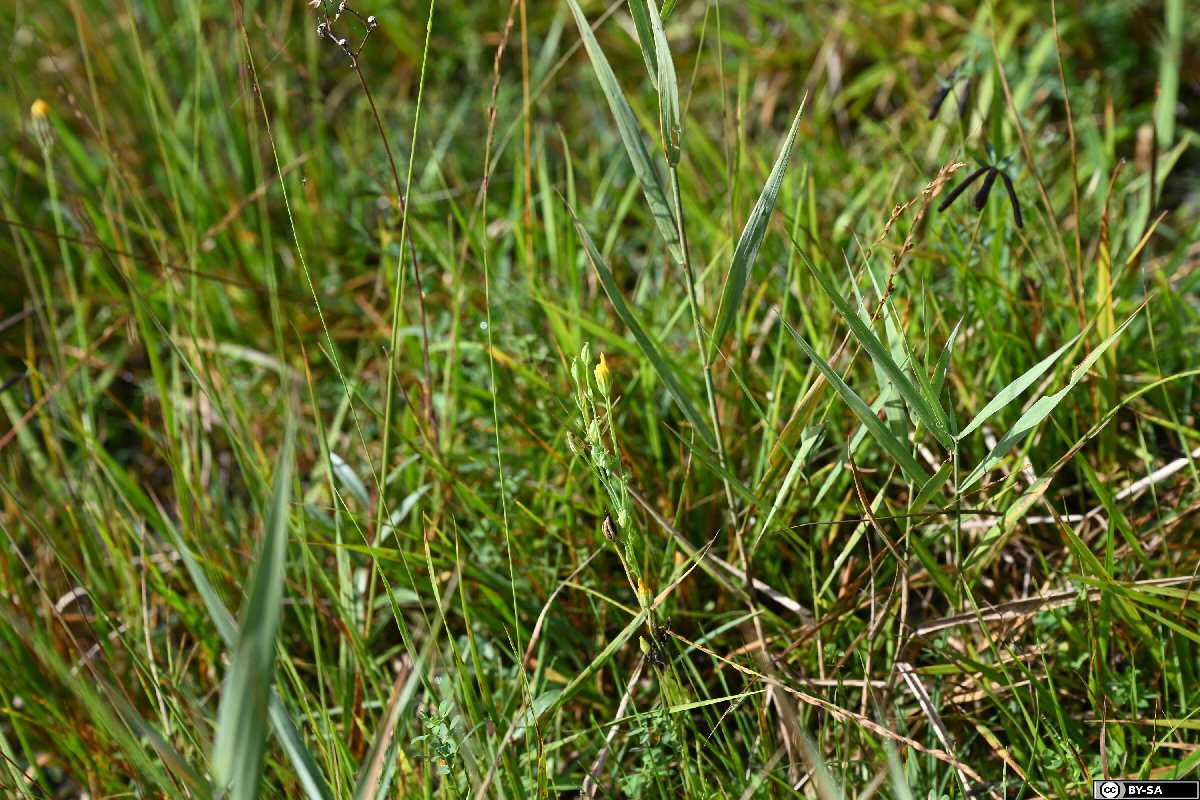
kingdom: Plantae
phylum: Tracheophyta
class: Magnoliopsida
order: Gentianales
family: Gentianaceae
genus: Blackstonia
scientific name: Blackstonia acuminata
